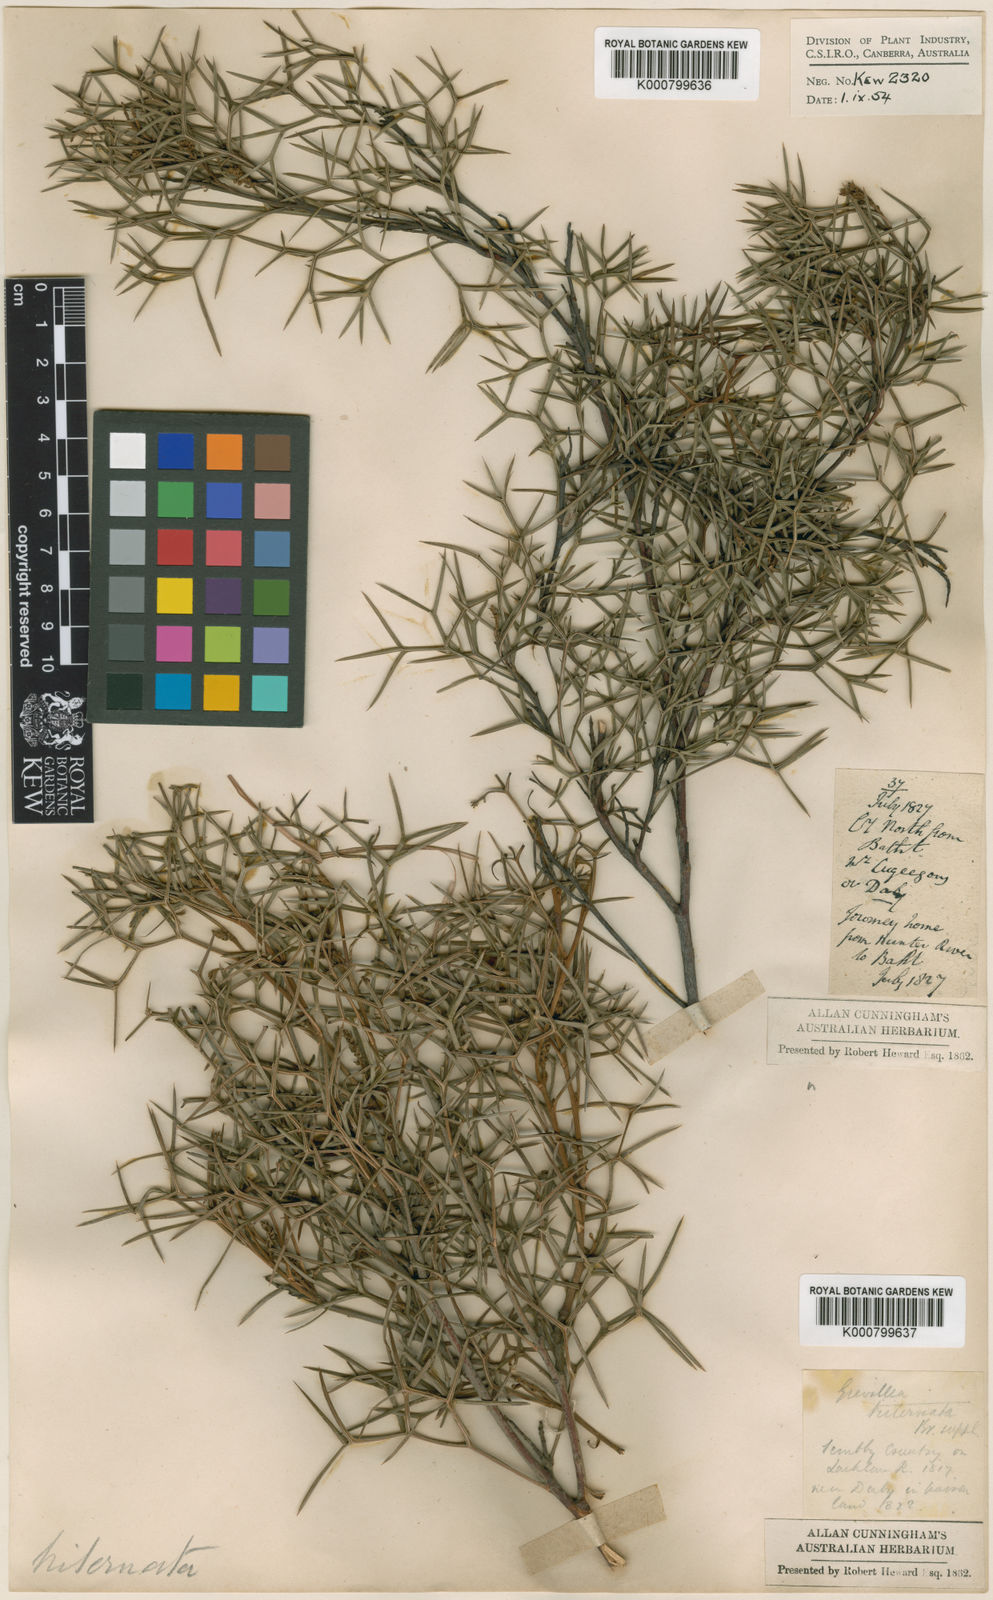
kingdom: Plantae
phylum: Tracheophyta
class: Magnoliopsida
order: Proteales
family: Proteaceae
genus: Grevillea
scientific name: Grevillea triternata
